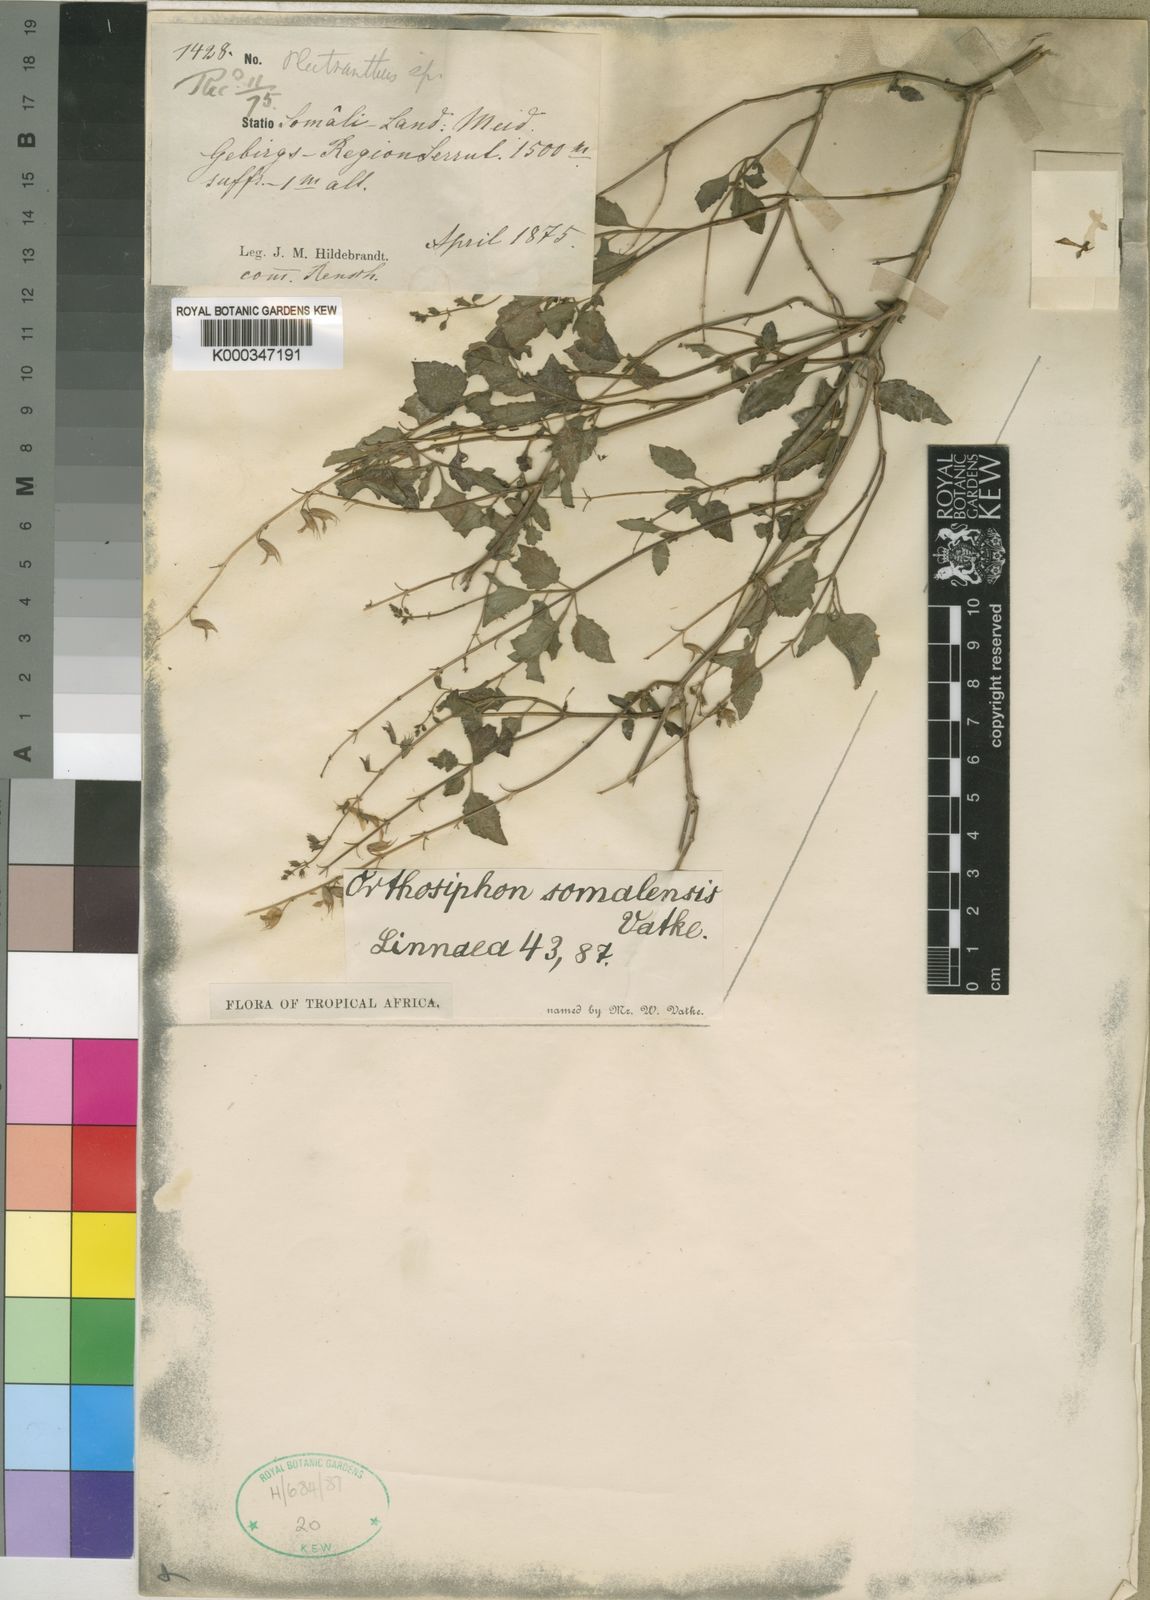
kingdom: Plantae
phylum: Tracheophyta
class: Magnoliopsida
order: Lamiales
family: Lamiaceae
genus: Orthosiphon
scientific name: Orthosiphon thymiflorus
